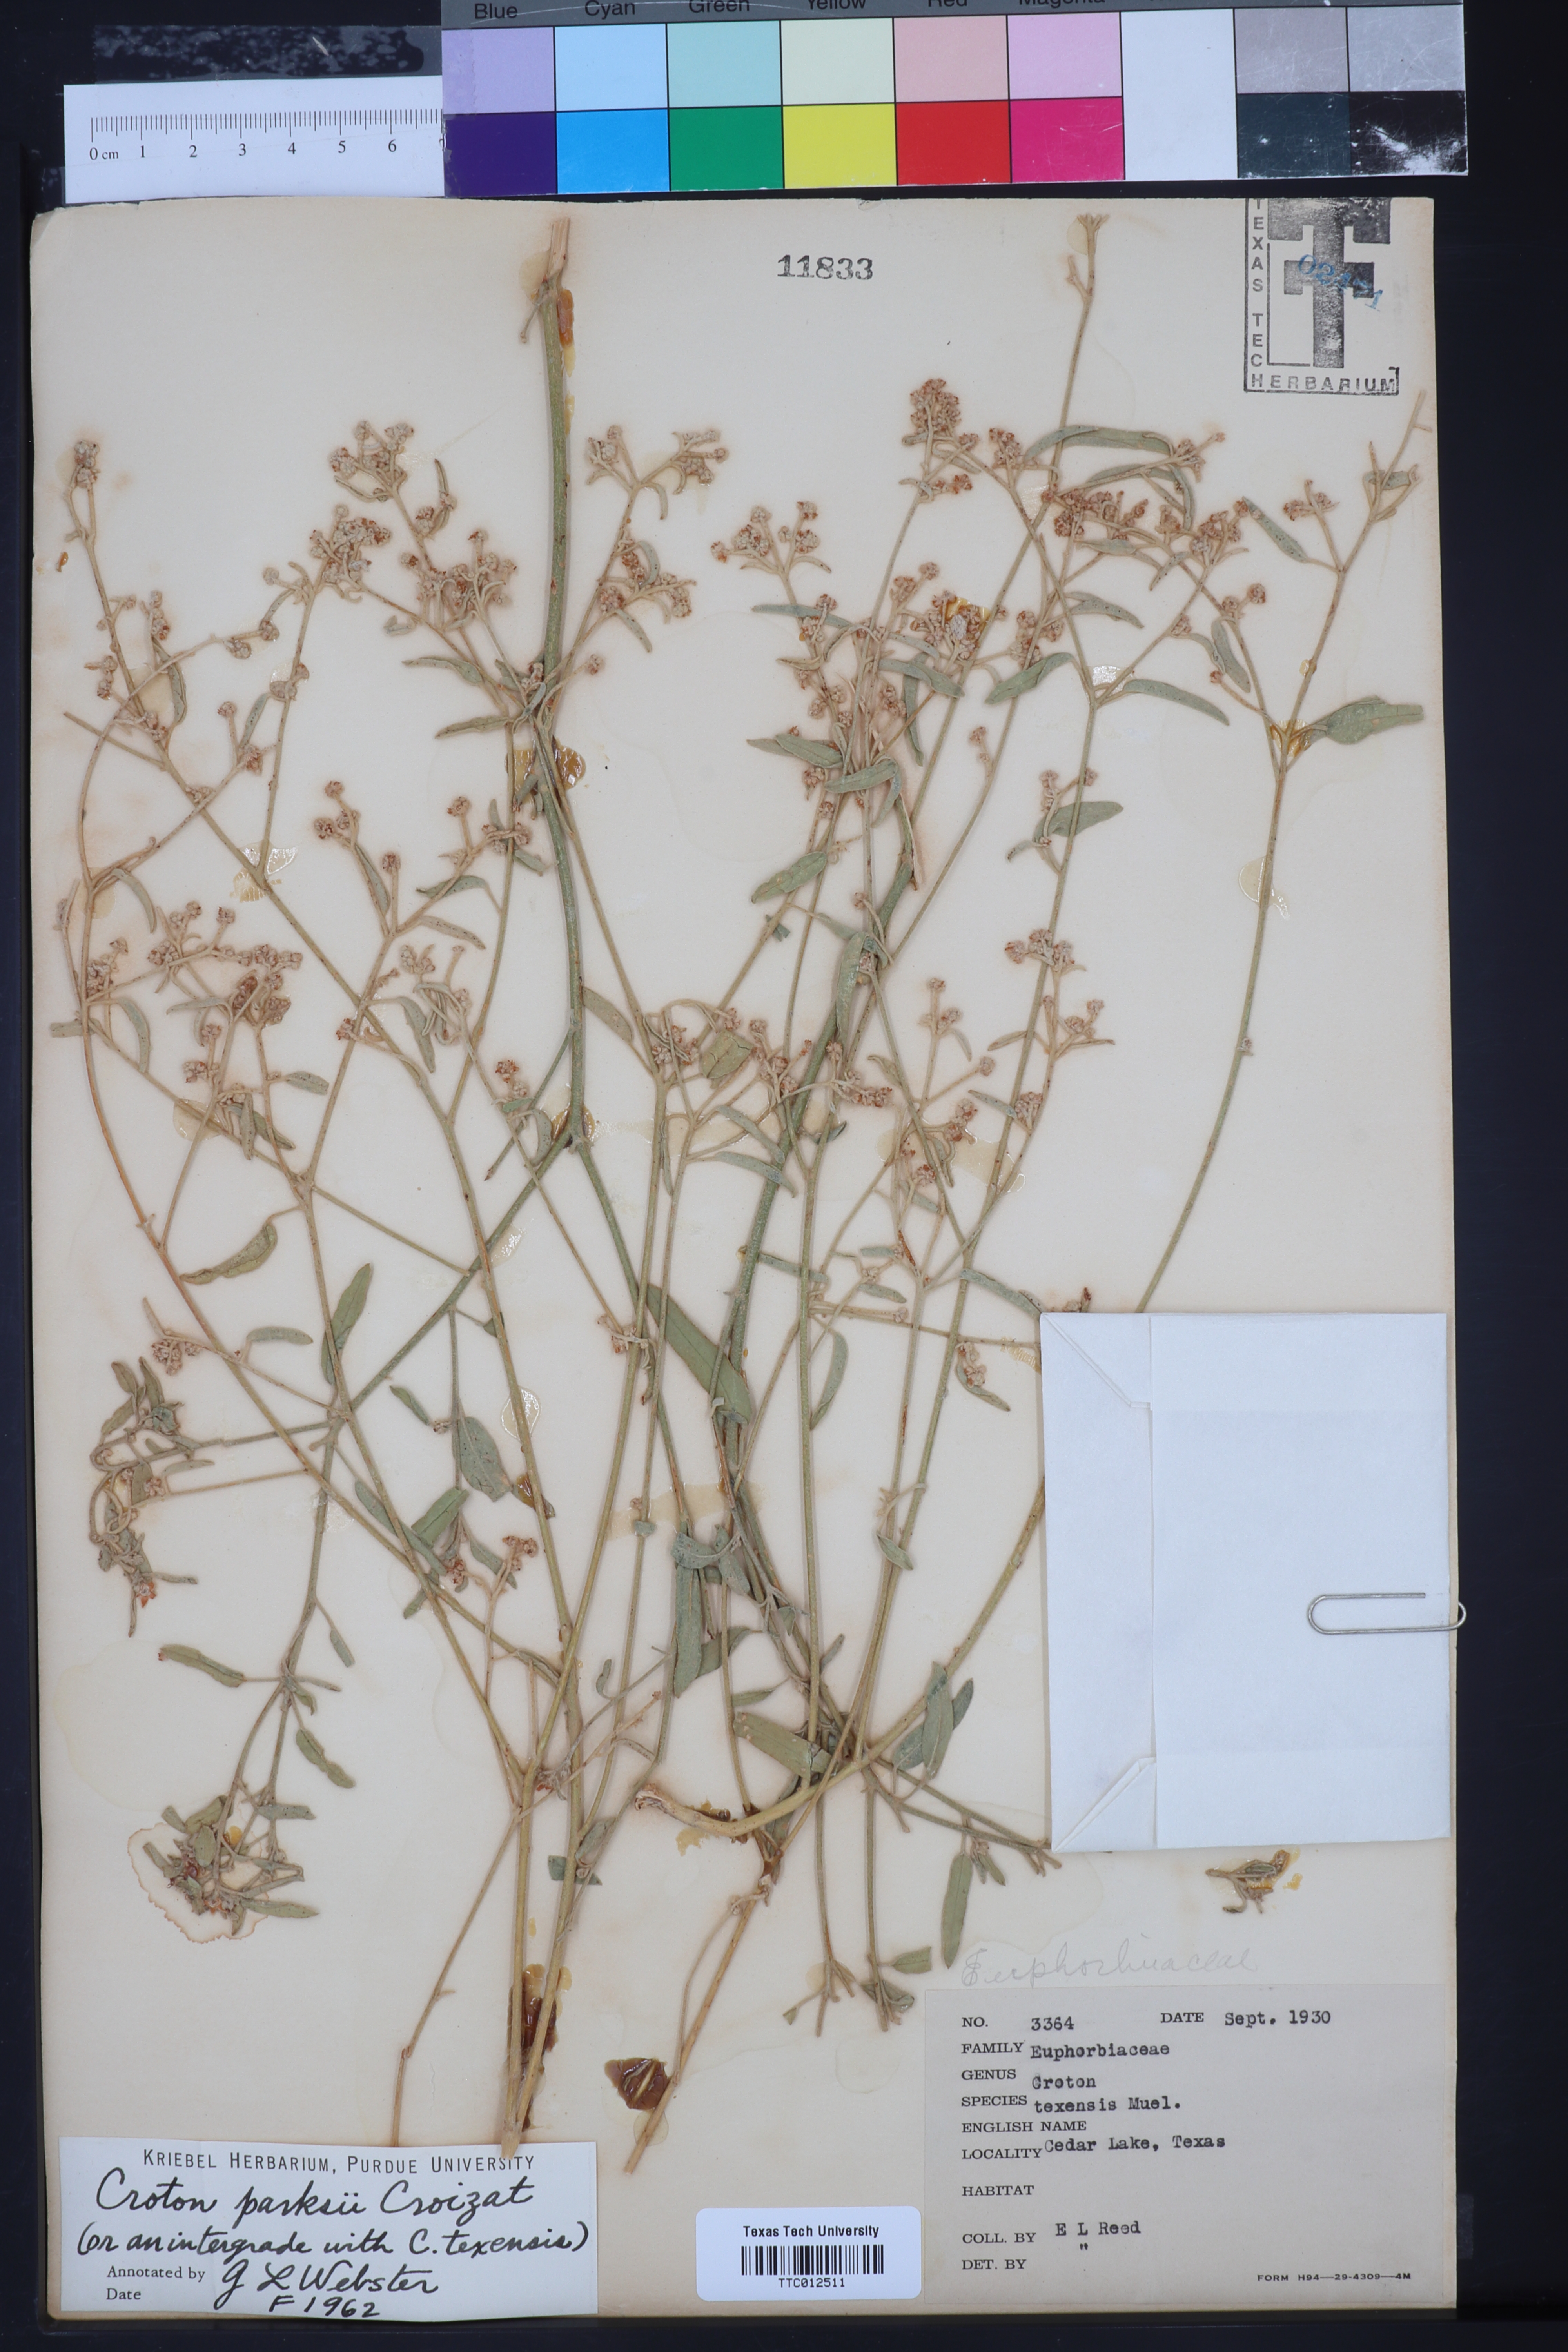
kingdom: Plantae
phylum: Tracheophyta
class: Magnoliopsida
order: Malpighiales
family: Euphorbiaceae
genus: Croton
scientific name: Croton texensis
